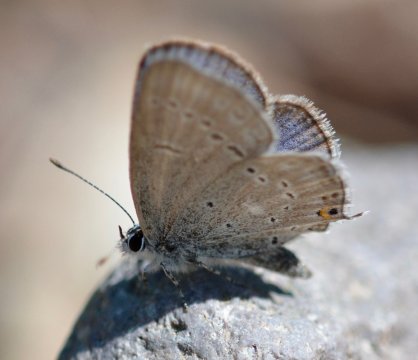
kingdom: Animalia
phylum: Arthropoda
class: Insecta
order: Lepidoptera
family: Lycaenidae
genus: Elkalyce
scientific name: Elkalyce amyntula
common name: Western Tailed-Blue
